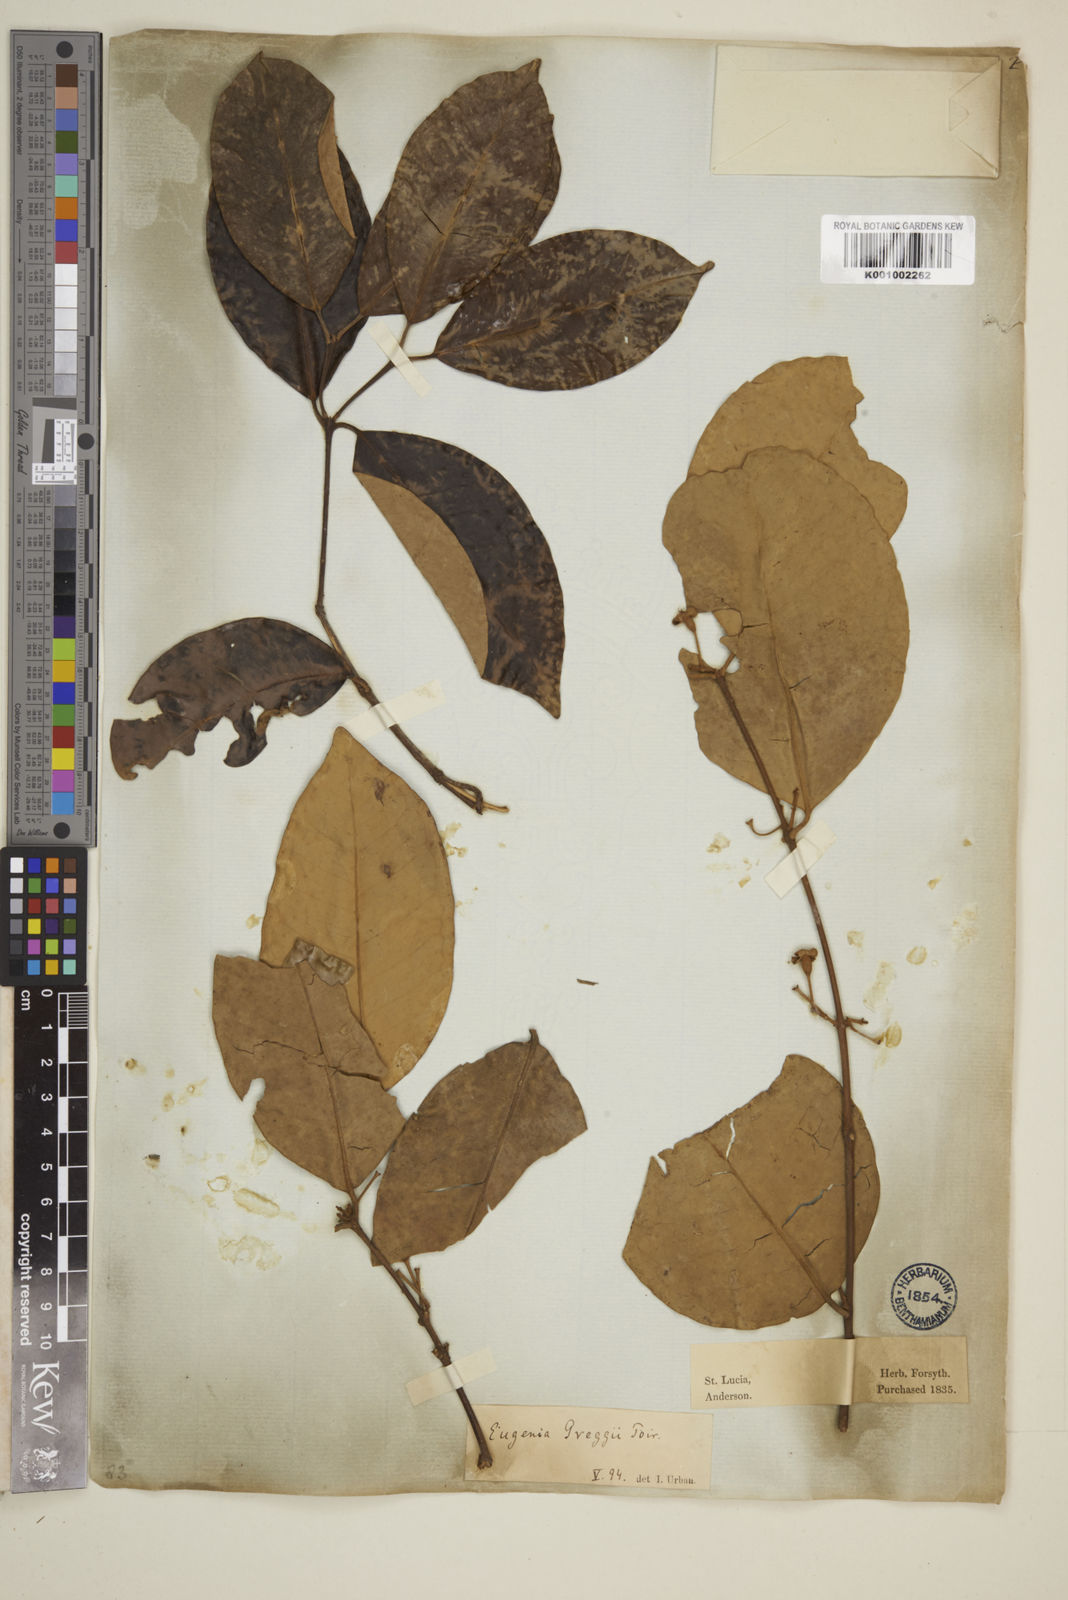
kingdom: Plantae
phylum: Tracheophyta
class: Magnoliopsida
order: Myrtales
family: Myrtaceae
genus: Eugenia
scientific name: Eugenia greggii
